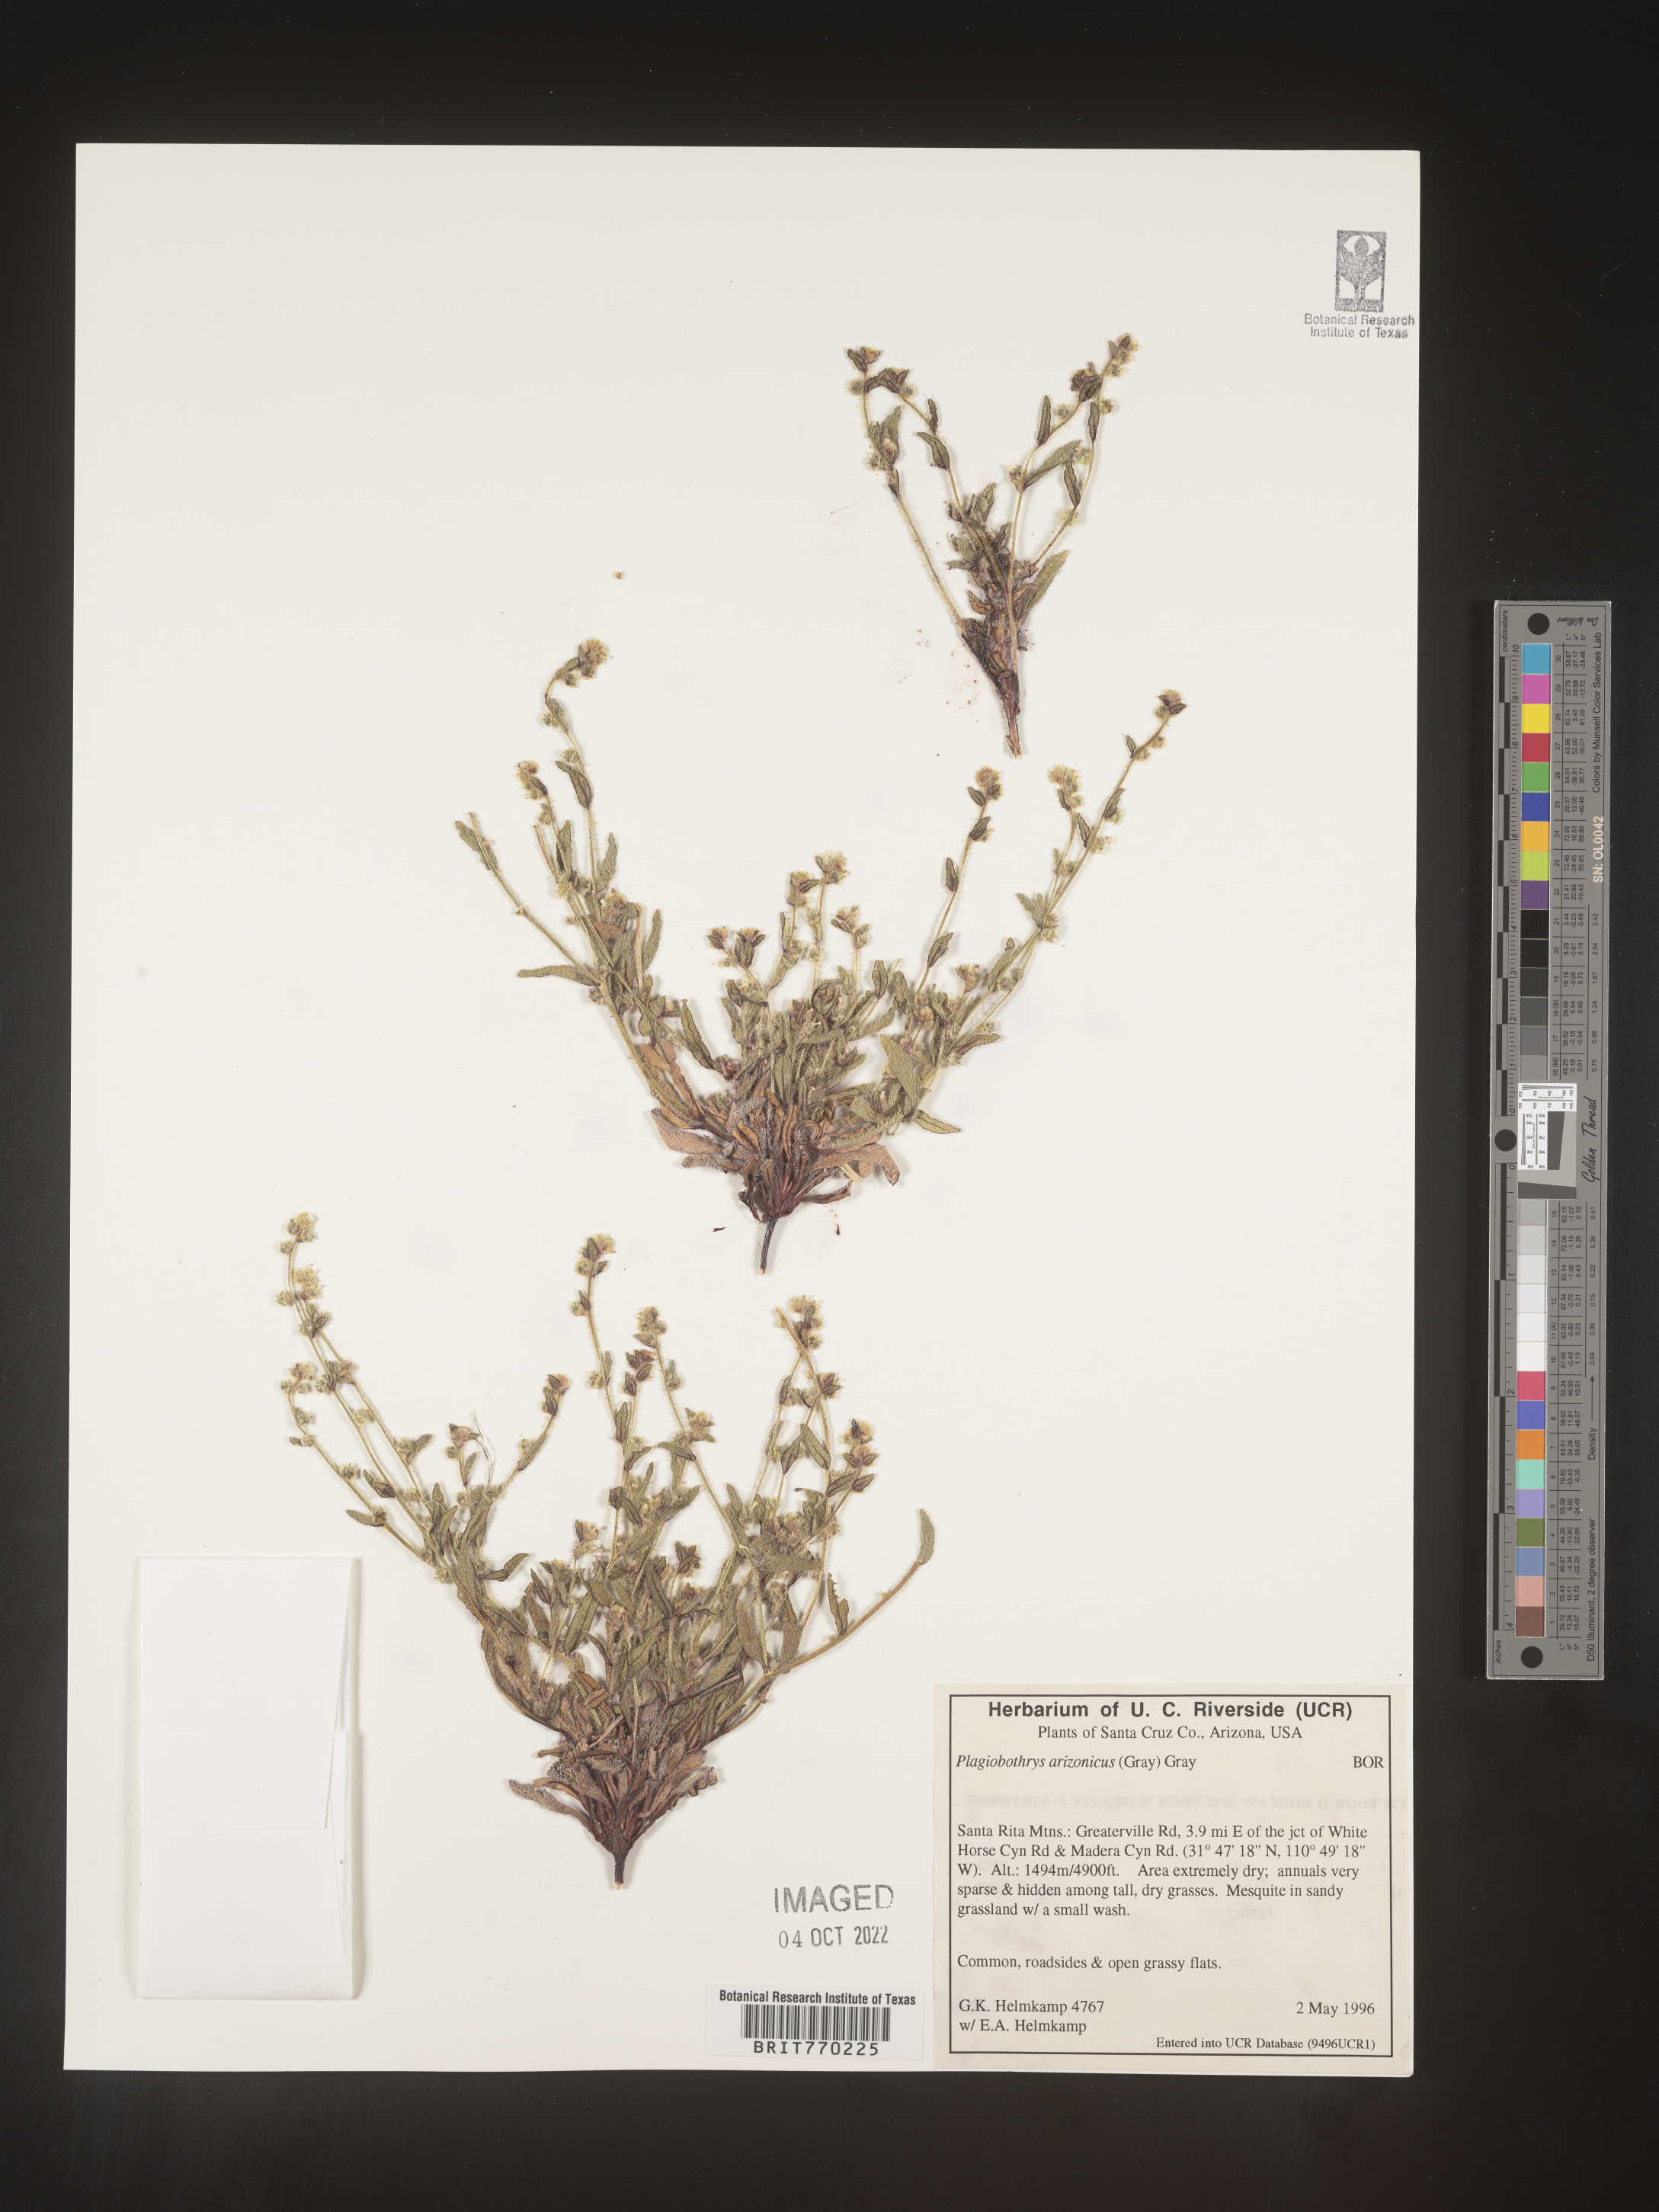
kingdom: Plantae
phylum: Tracheophyta
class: Magnoliopsida
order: Boraginales
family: Boraginaceae
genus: Plagiobothrys
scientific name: Plagiobothrys
